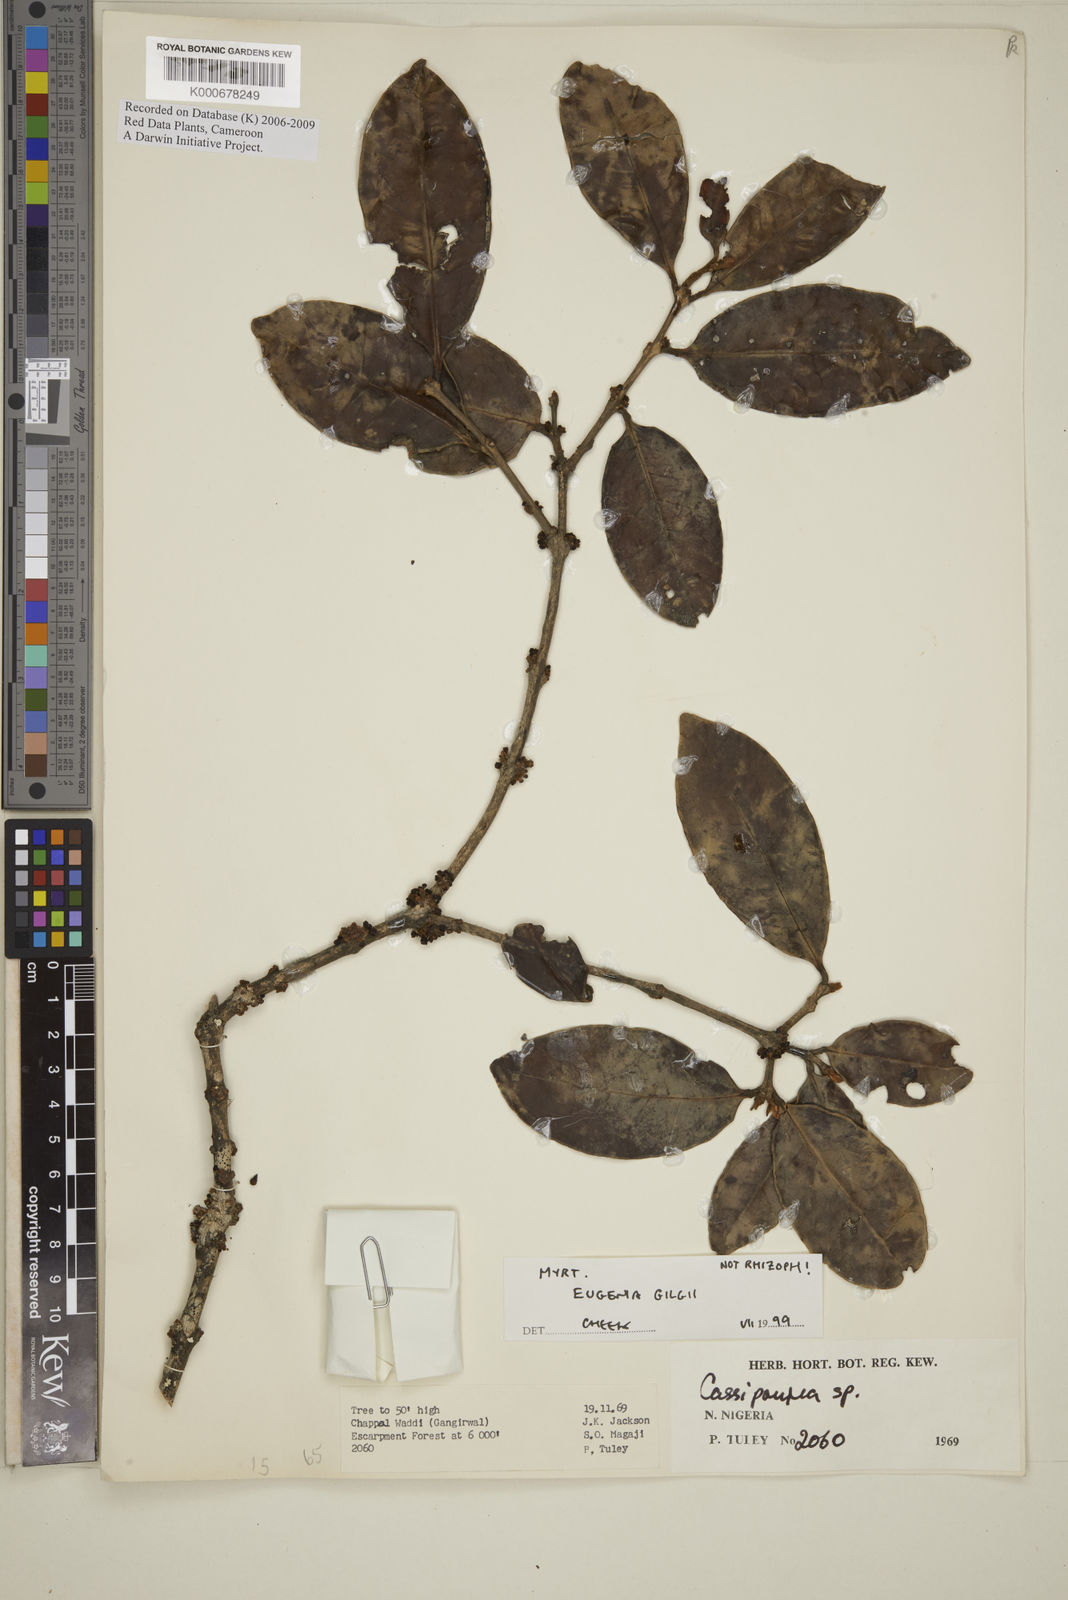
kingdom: Plantae
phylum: Tracheophyta
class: Magnoliopsida
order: Myrtales
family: Myrtaceae
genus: Eugenia
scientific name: Eugenia gilgii
